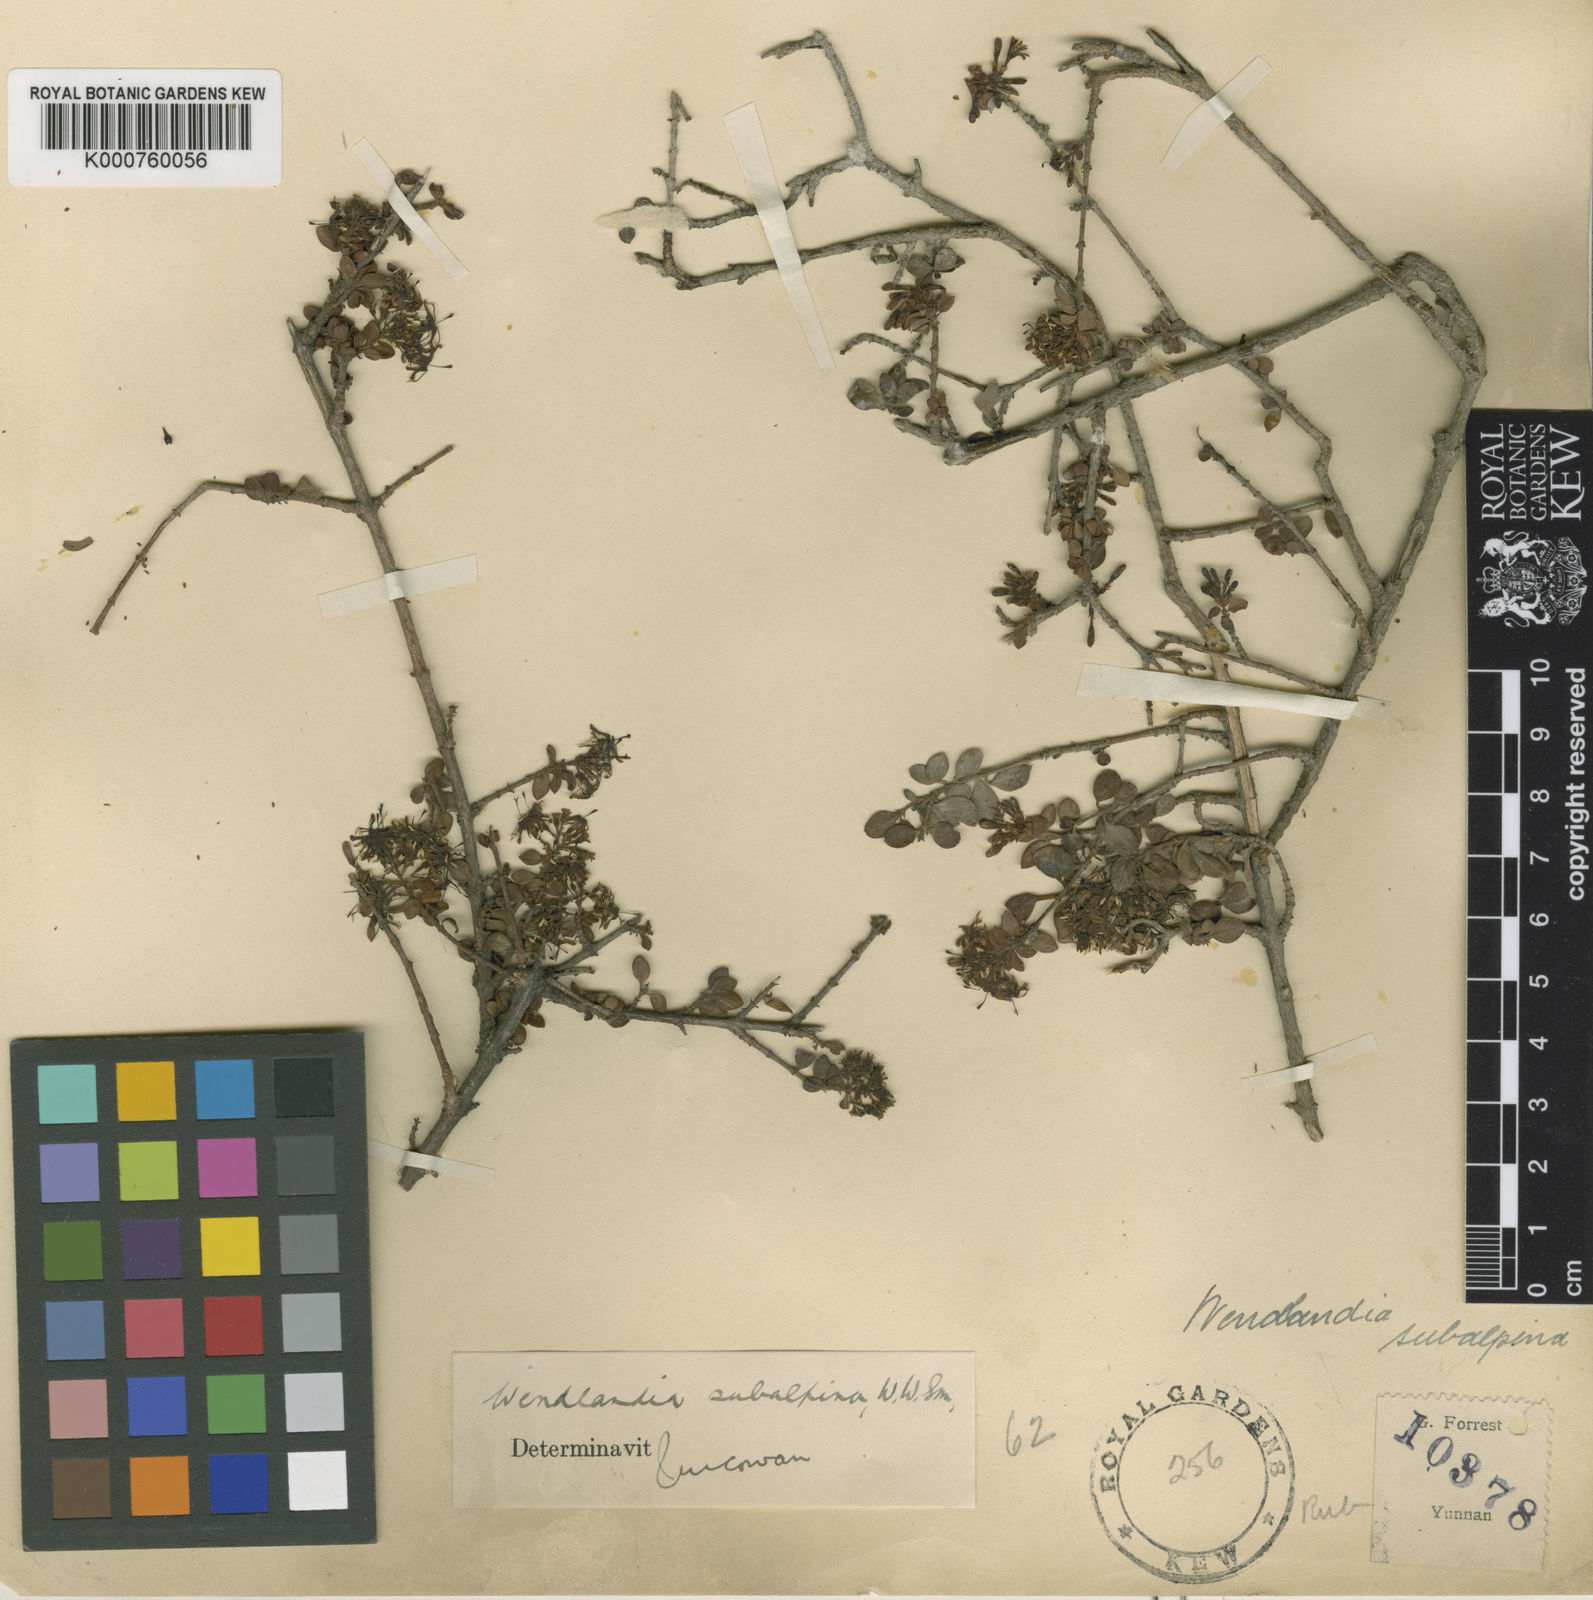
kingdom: Plantae
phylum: Tracheophyta
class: Magnoliopsida
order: Gentianales
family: Rubiaceae
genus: Wendlandia
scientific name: Wendlandia subalpina
